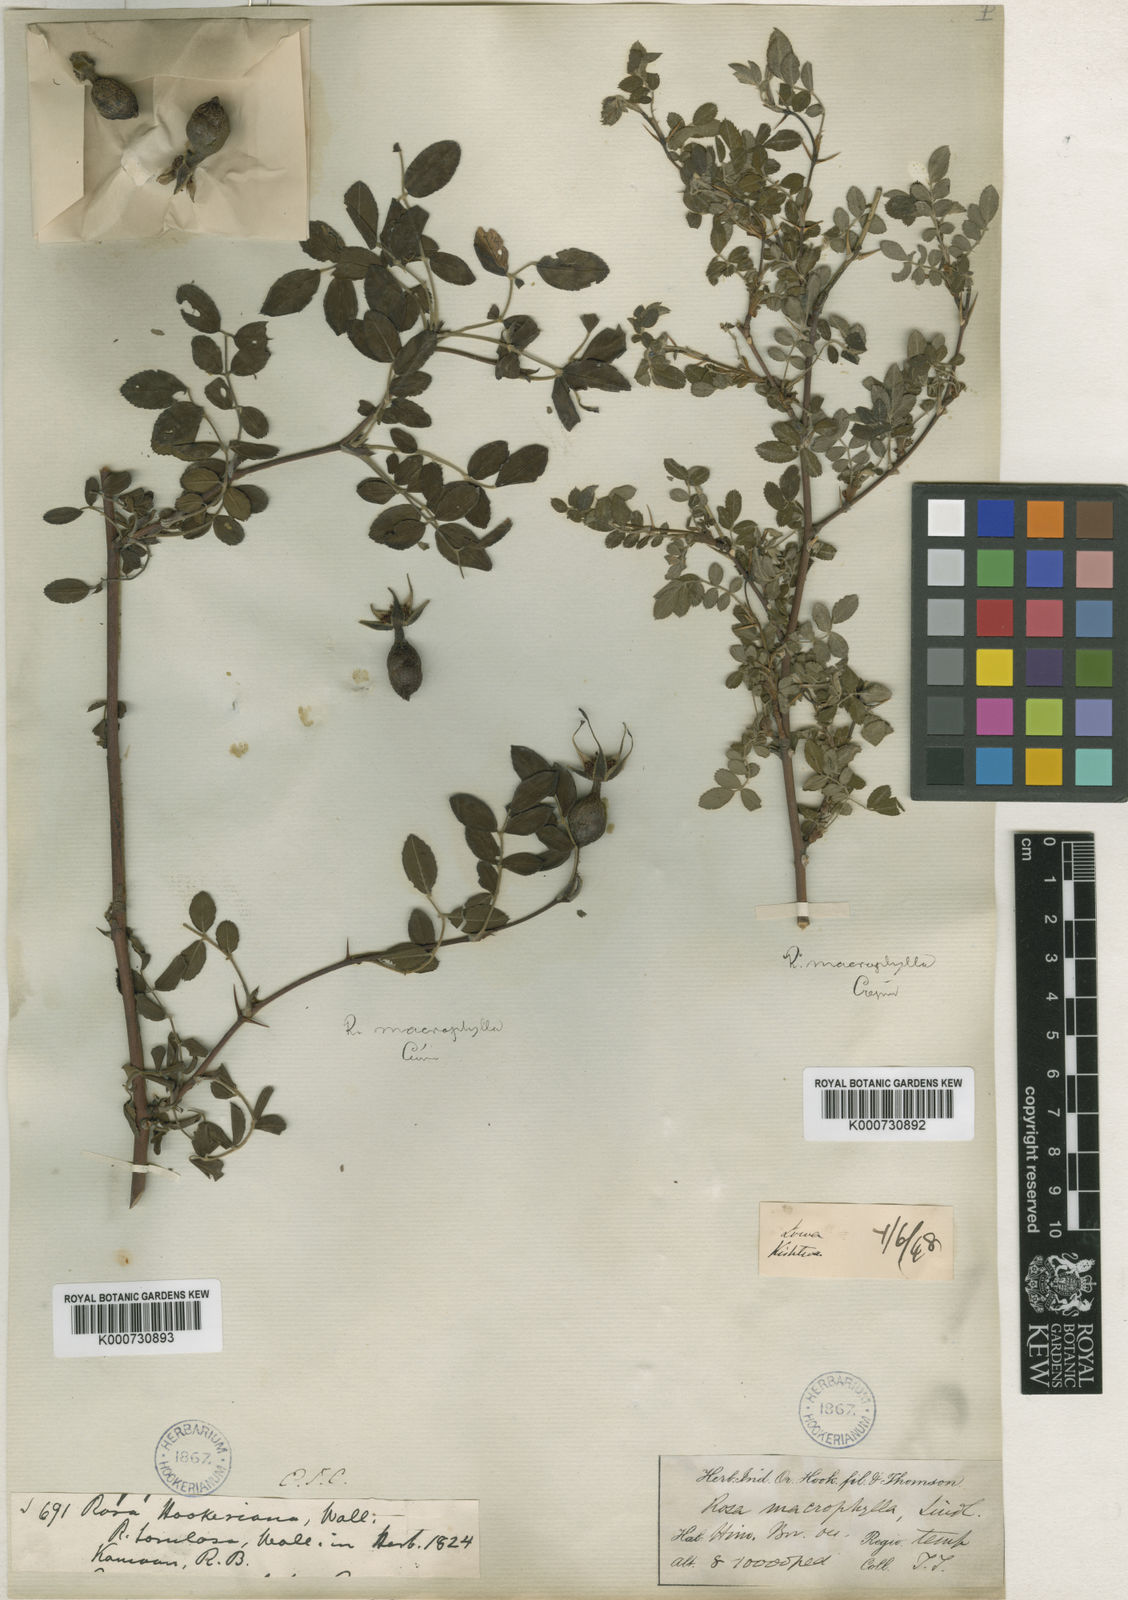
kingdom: Plantae
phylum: Tracheophyta
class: Magnoliopsida
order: Rosales
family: Rosaceae
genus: Rosa
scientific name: Rosa macrophylla
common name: Big-hip rose
